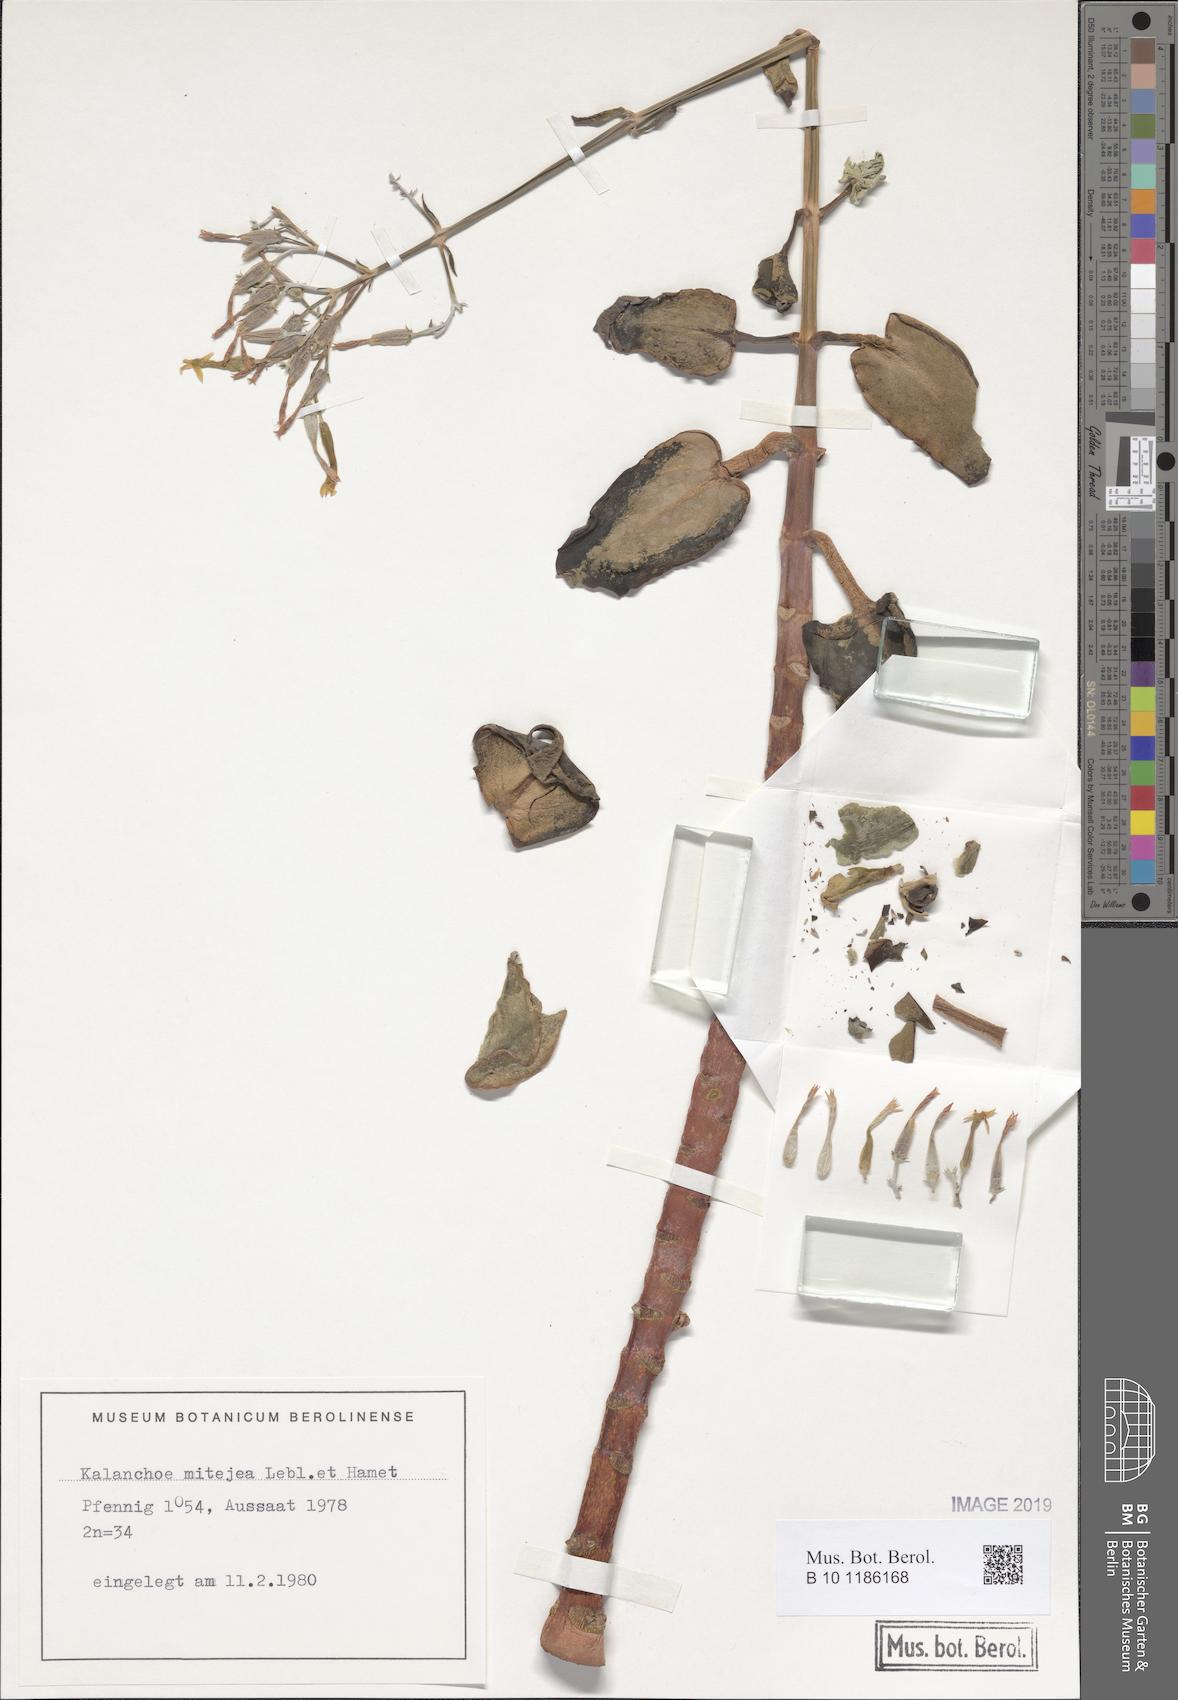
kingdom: Plantae
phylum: Tracheophyta
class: Magnoliopsida
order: Saxifragales
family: Crassulaceae
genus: Kalanchoe
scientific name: Kalanchoe mitejea
